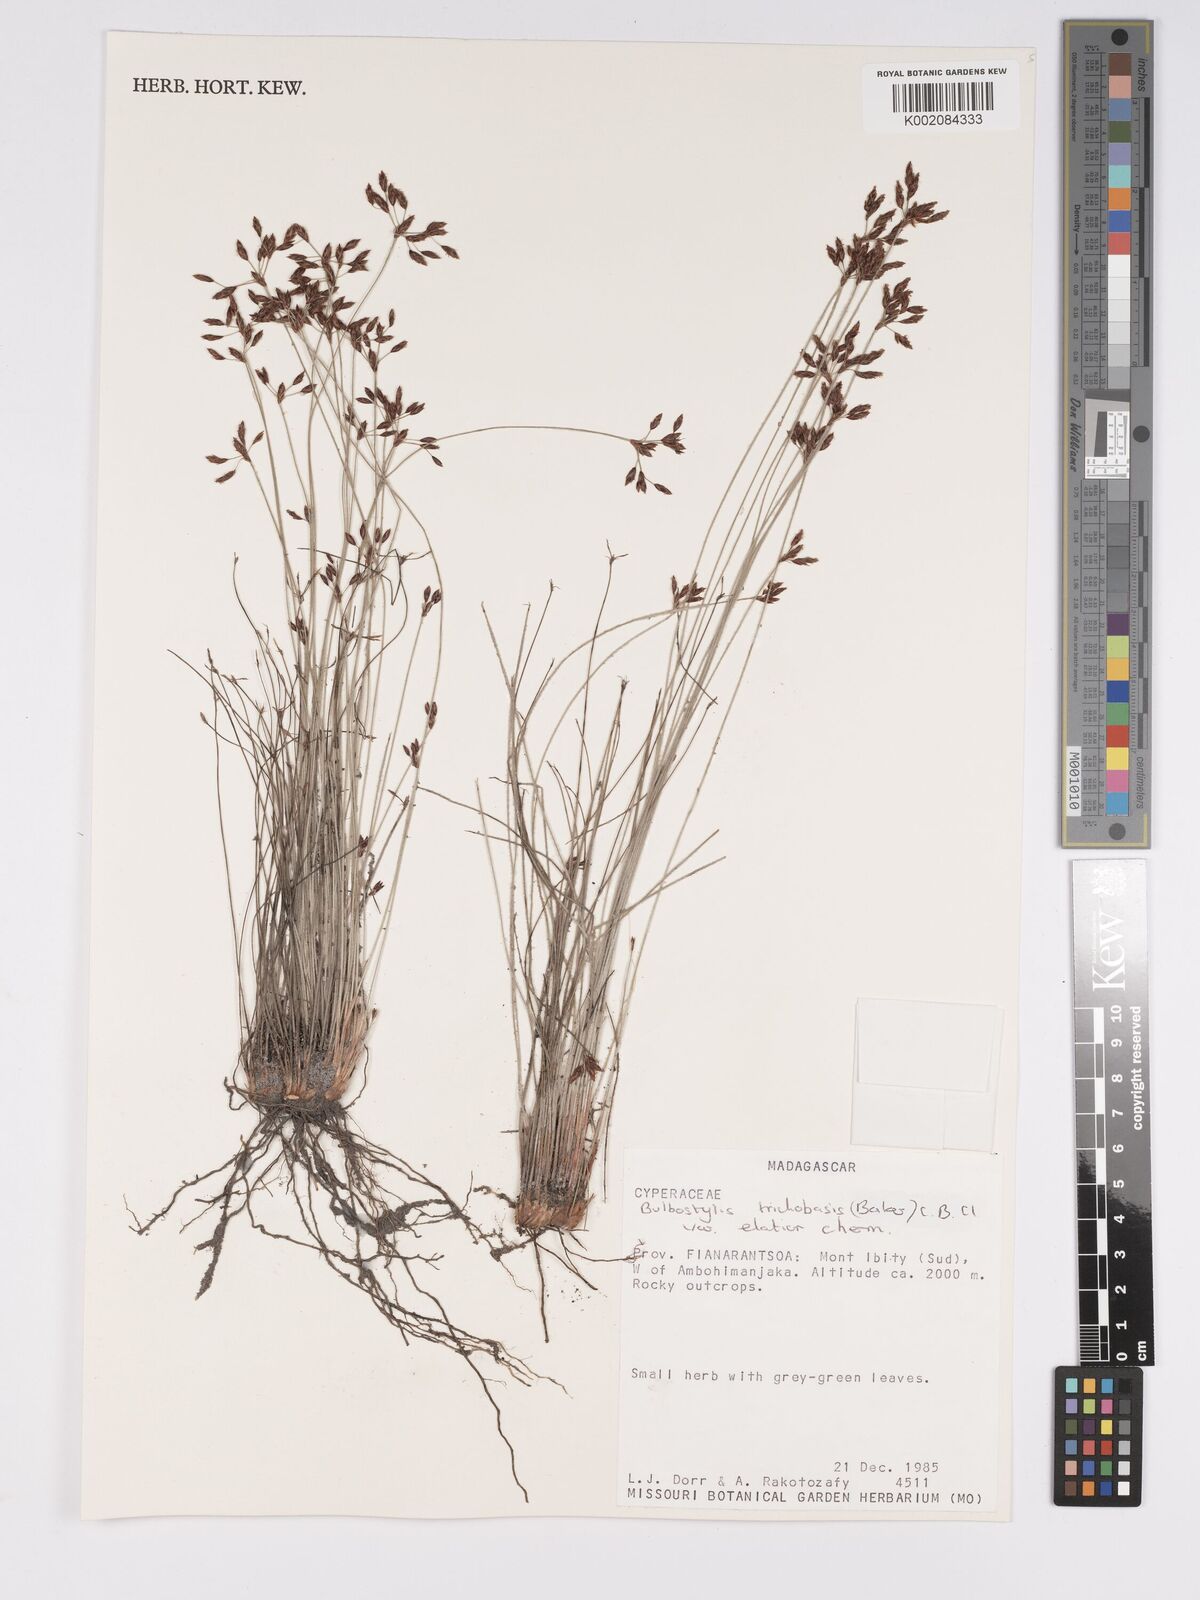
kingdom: Plantae
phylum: Tracheophyta
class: Liliopsida
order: Poales
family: Cyperaceae
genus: Bulbostylis
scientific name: Bulbostylis trichobasis
